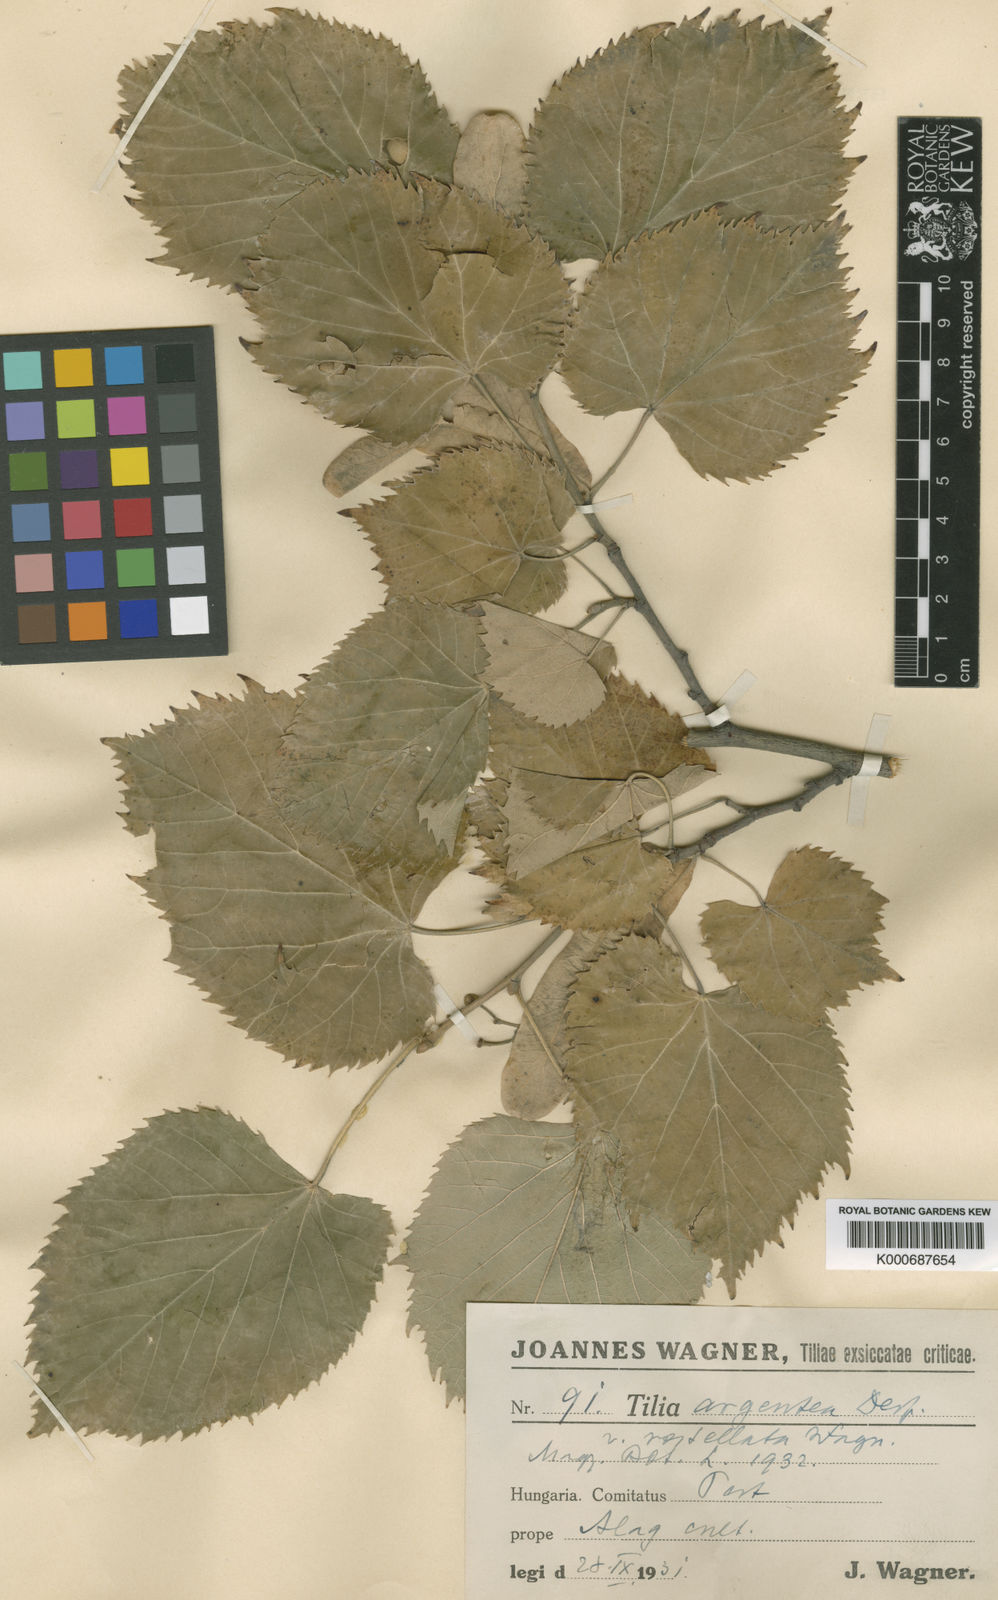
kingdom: Plantae
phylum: Tracheophyta
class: Magnoliopsida
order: Malvales
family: Malvaceae
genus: Tilia
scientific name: Tilia tomentosa
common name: Silver lime
